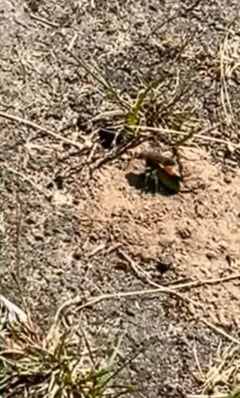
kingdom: Animalia
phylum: Arthropoda
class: Insecta
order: Hymenoptera
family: Sphecidae
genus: Sphex
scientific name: Sphex funerarius
